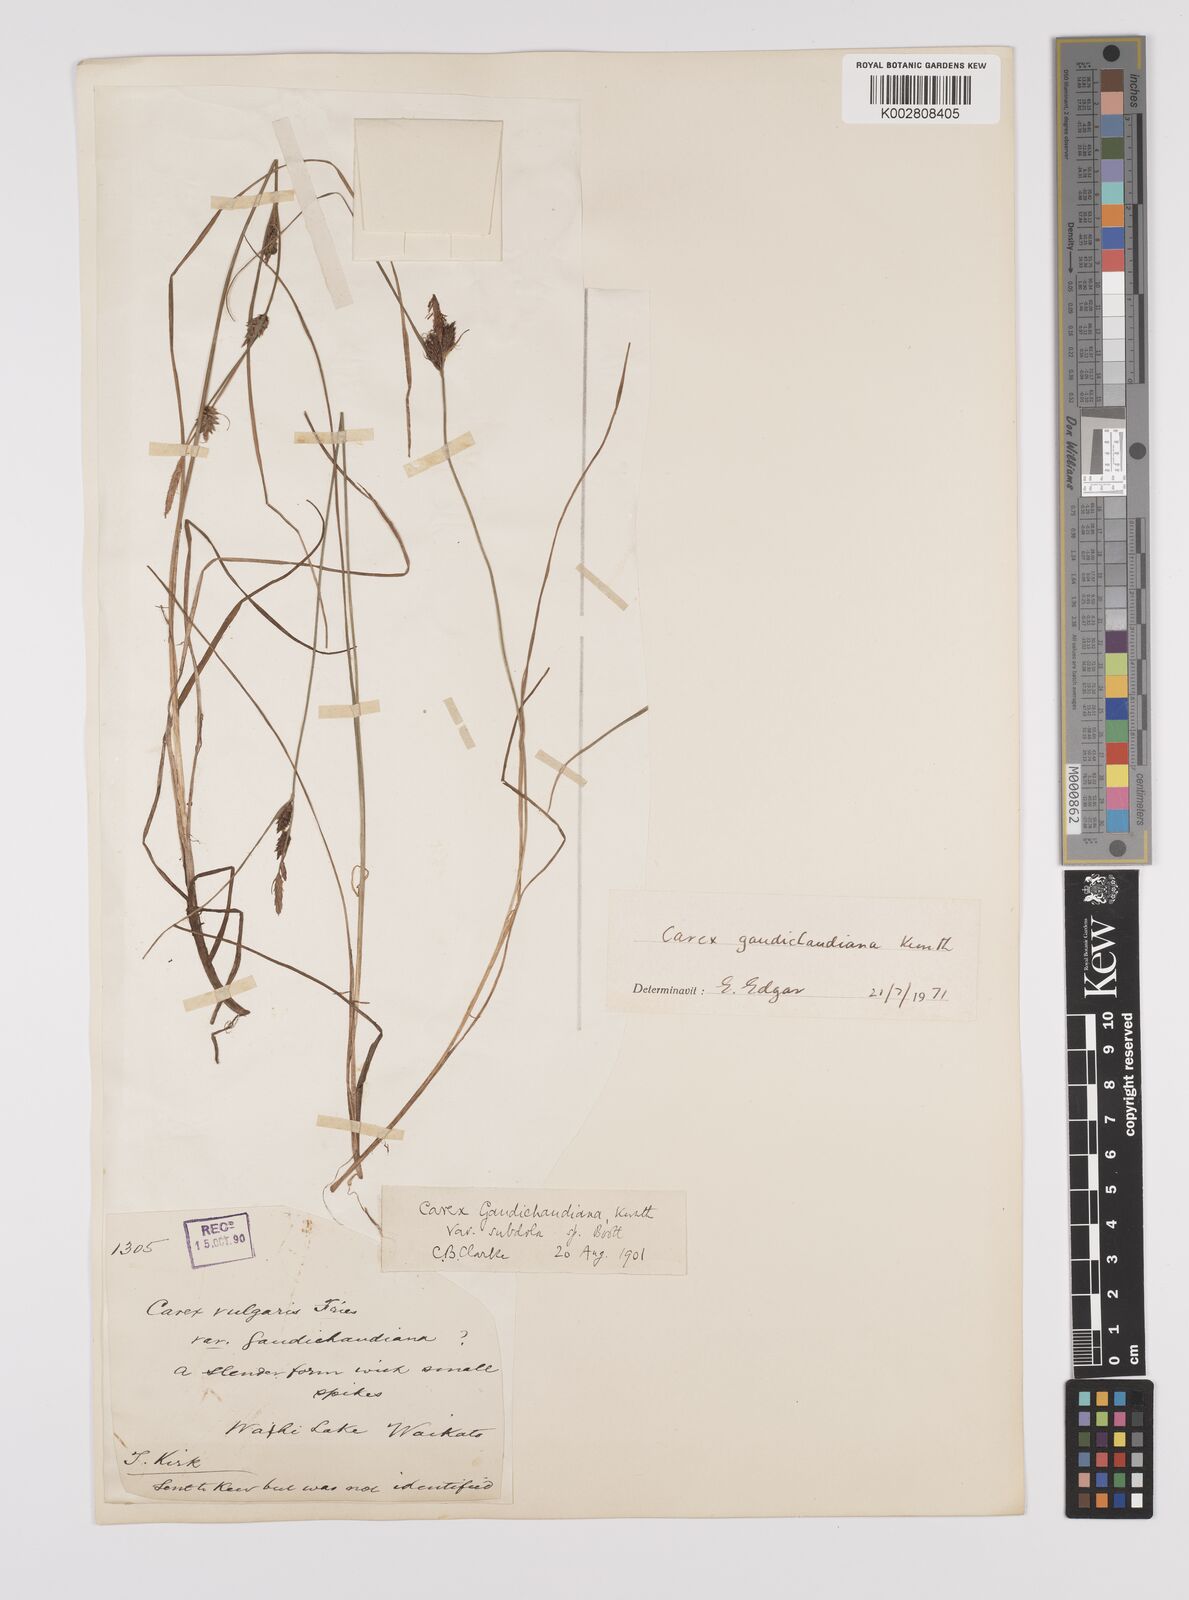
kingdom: Plantae
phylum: Tracheophyta
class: Liliopsida
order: Poales
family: Cyperaceae
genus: Carex
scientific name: Carex gaudichaudiana
